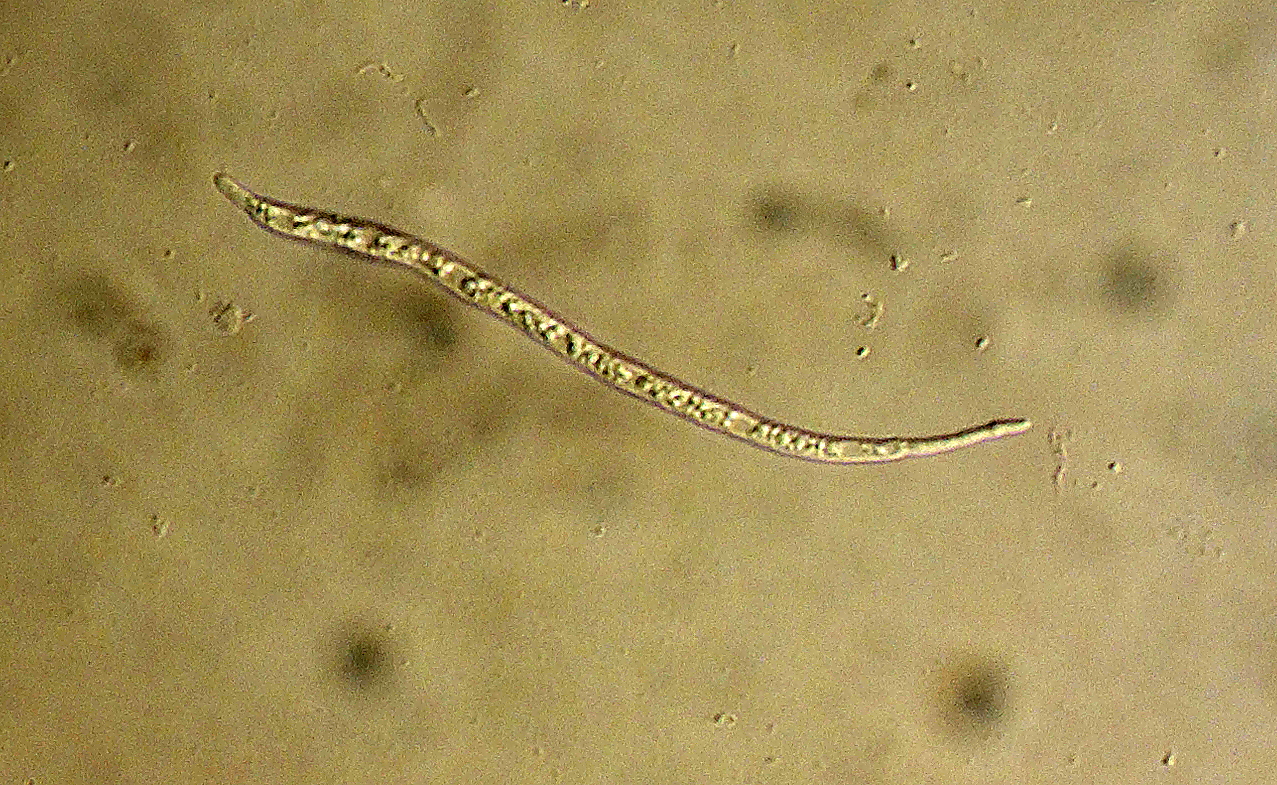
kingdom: Fungi
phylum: Ascomycota
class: Dothideomycetes
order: Mycosphaerellales
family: Mycosphaerellaceae
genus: Mycosphaerella
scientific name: Mycosphaerella crataegi
